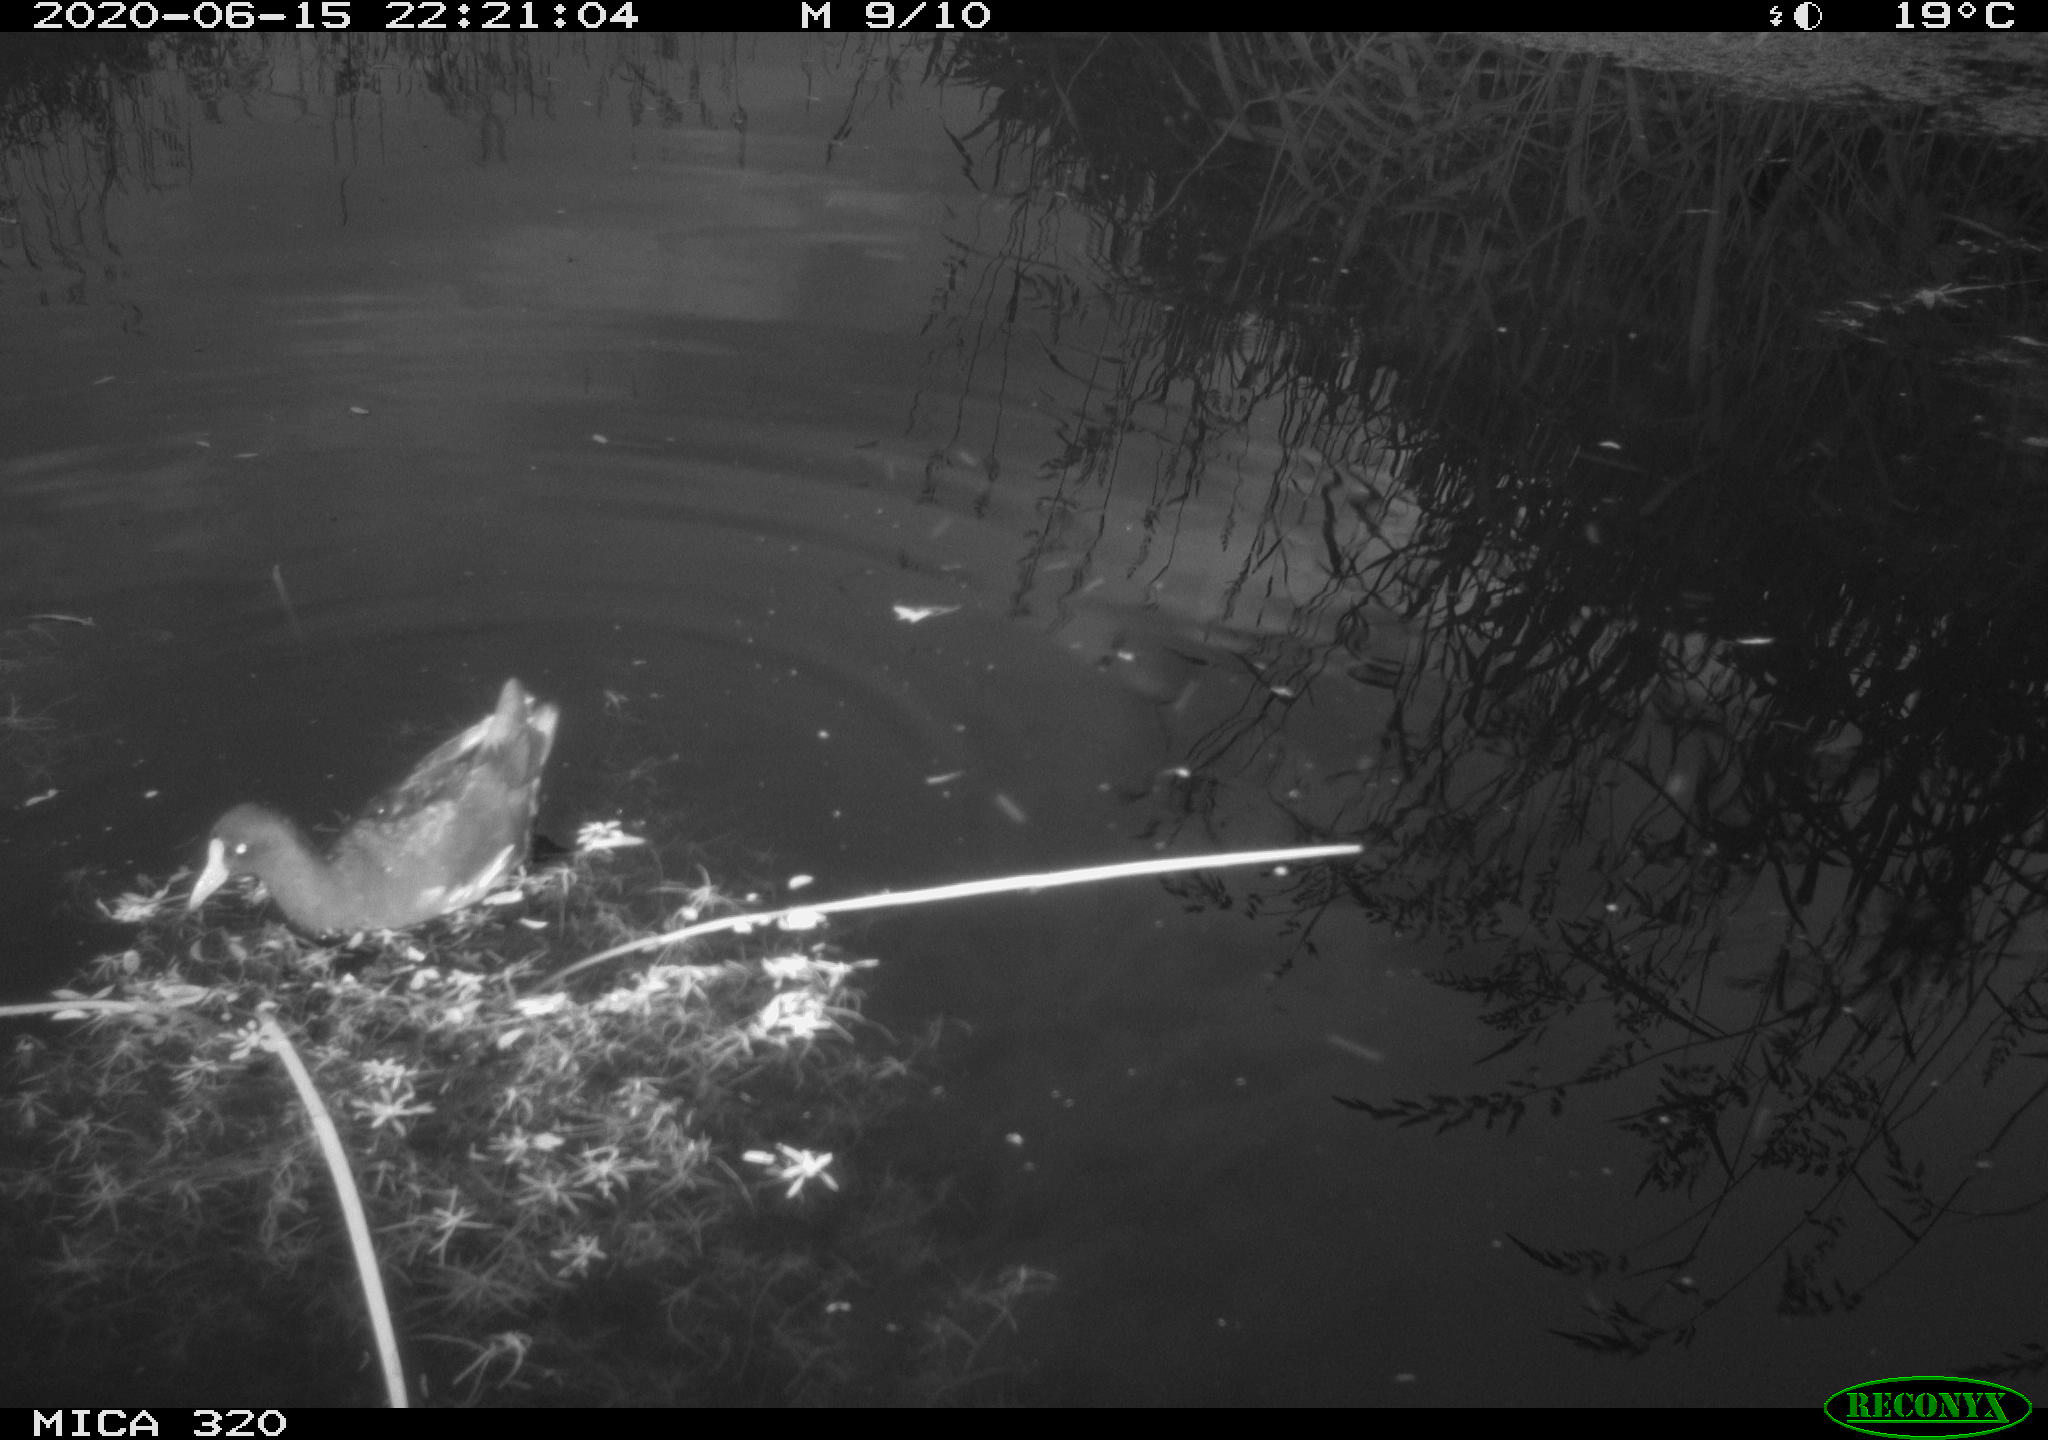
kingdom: Animalia
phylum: Chordata
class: Aves
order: Gruiformes
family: Rallidae
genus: Gallinula
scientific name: Gallinula chloropus
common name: Common moorhen
